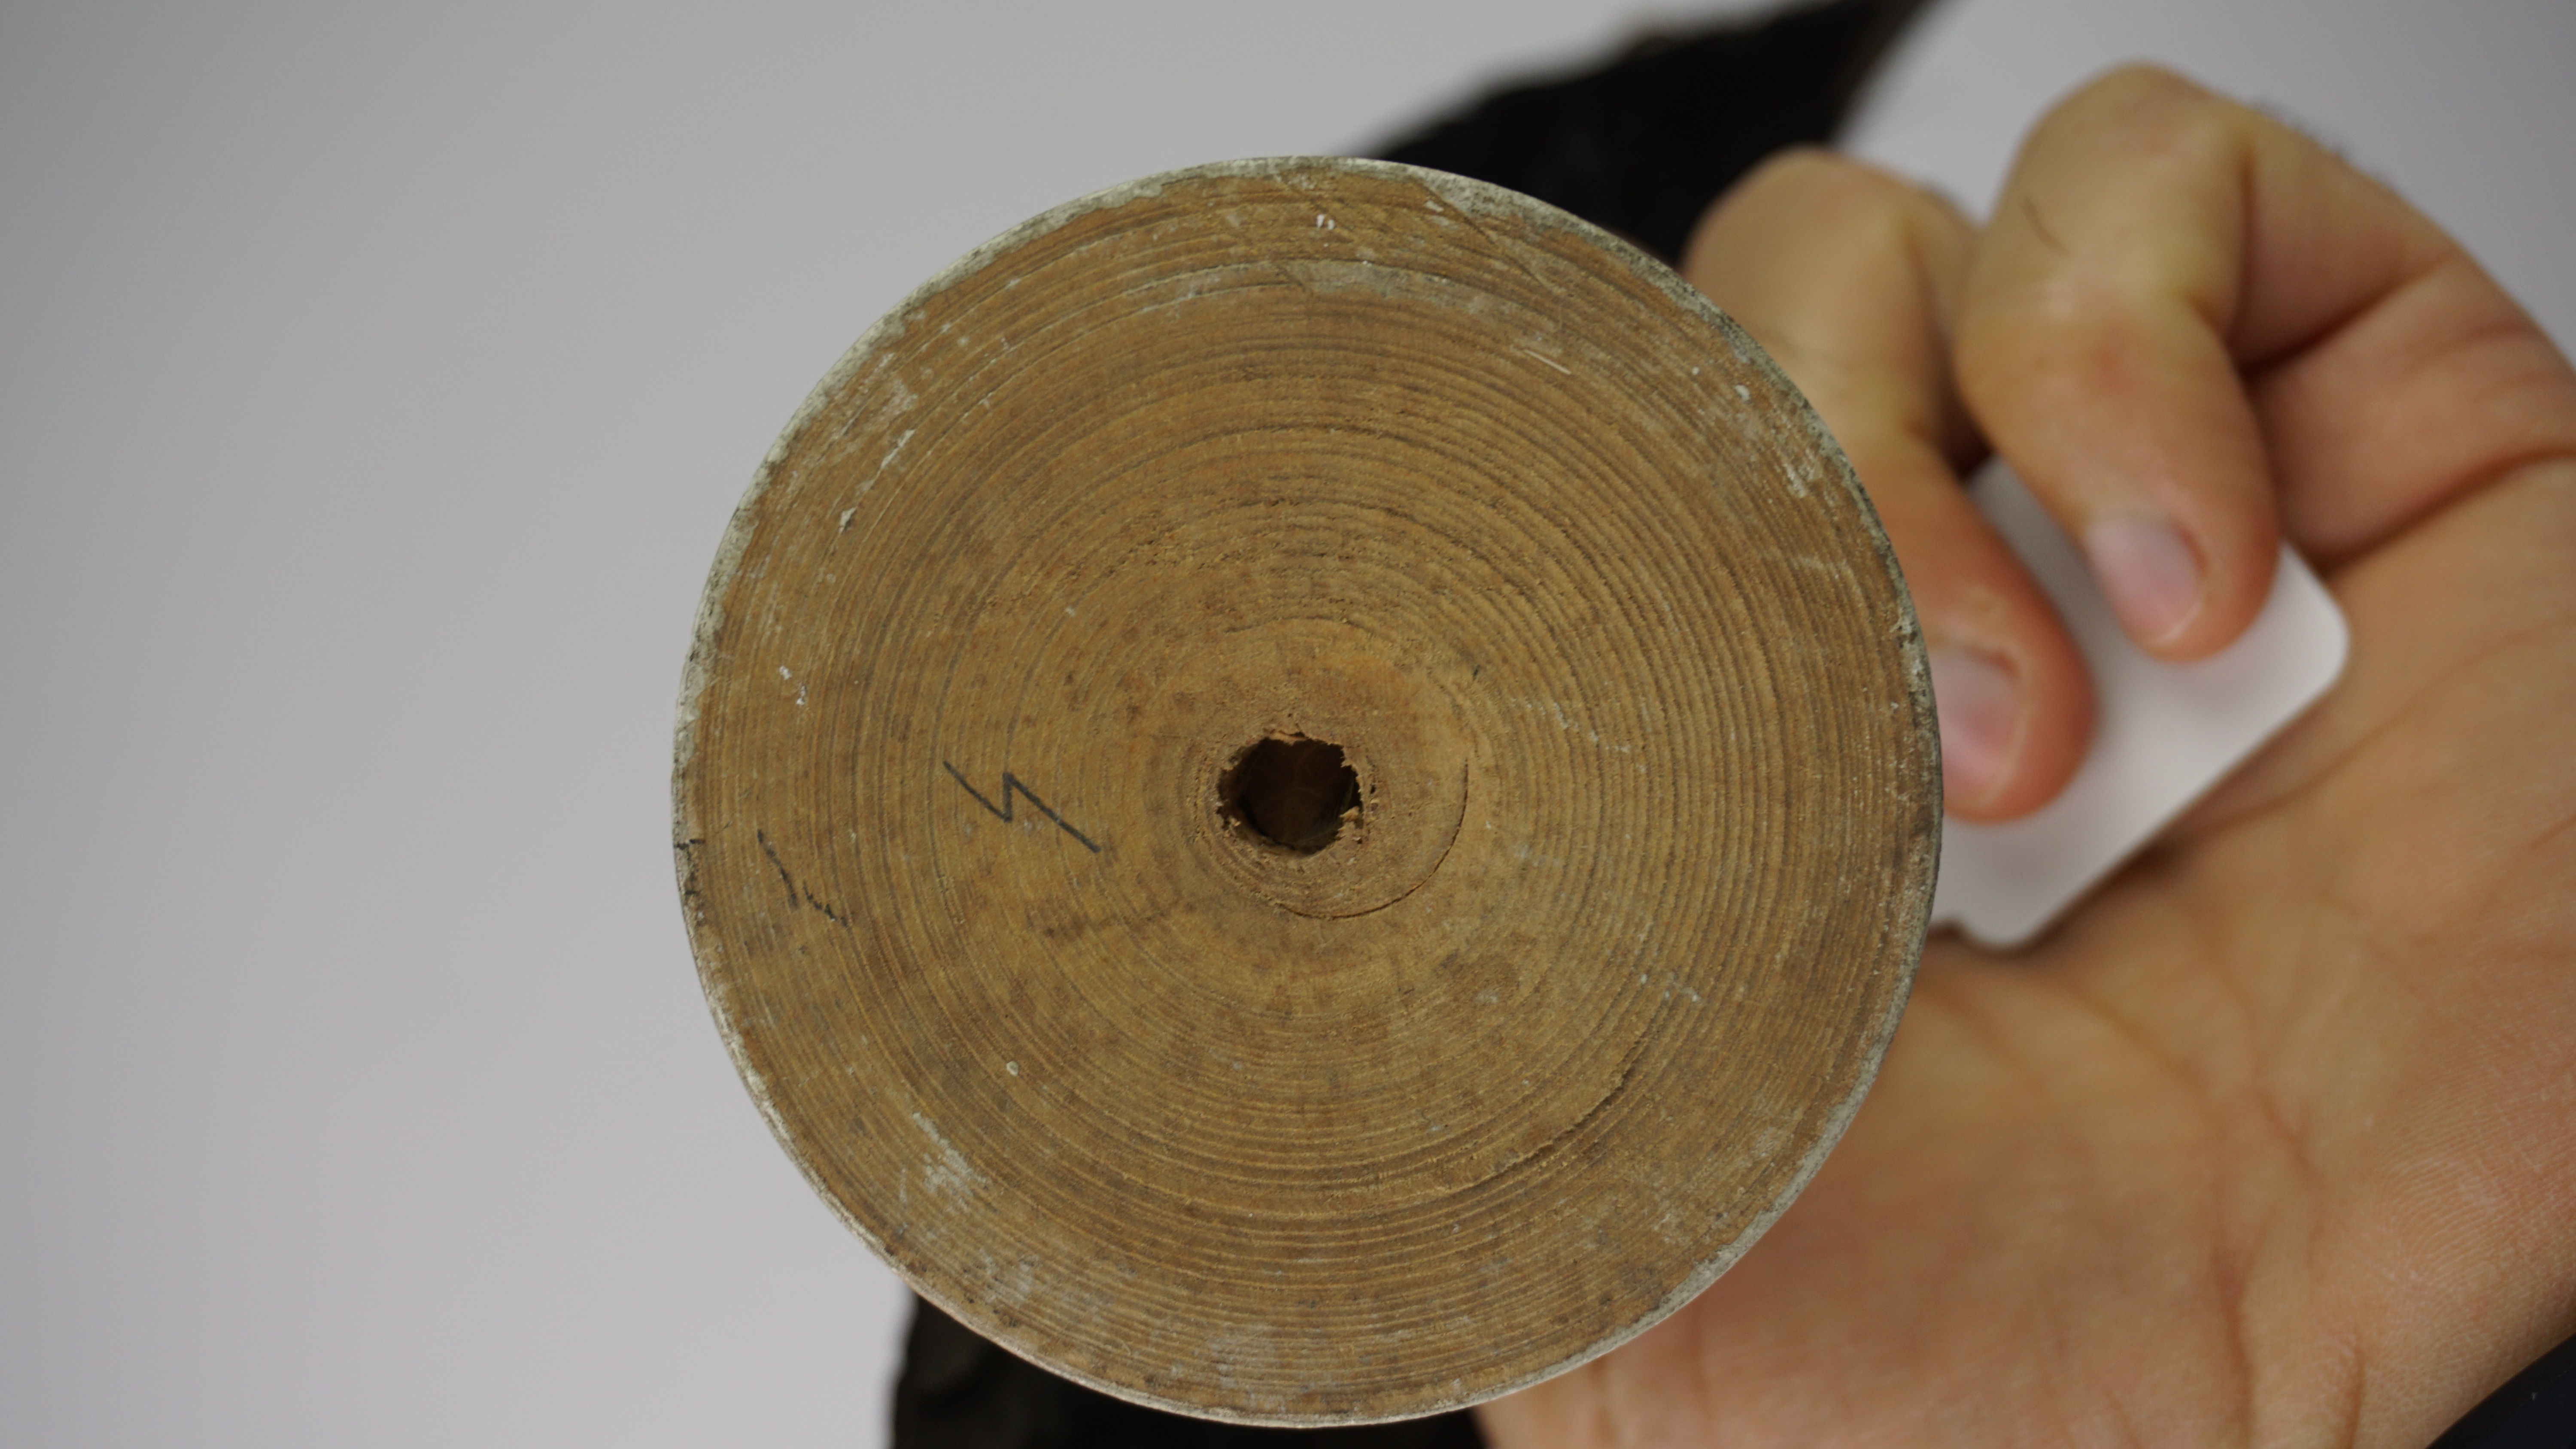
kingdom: Animalia
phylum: Chordata
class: Aves
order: Passeriformes
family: Dicruridae
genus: Dicrurus
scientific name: Dicrurus hottentottus
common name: Hair-crested drongo
